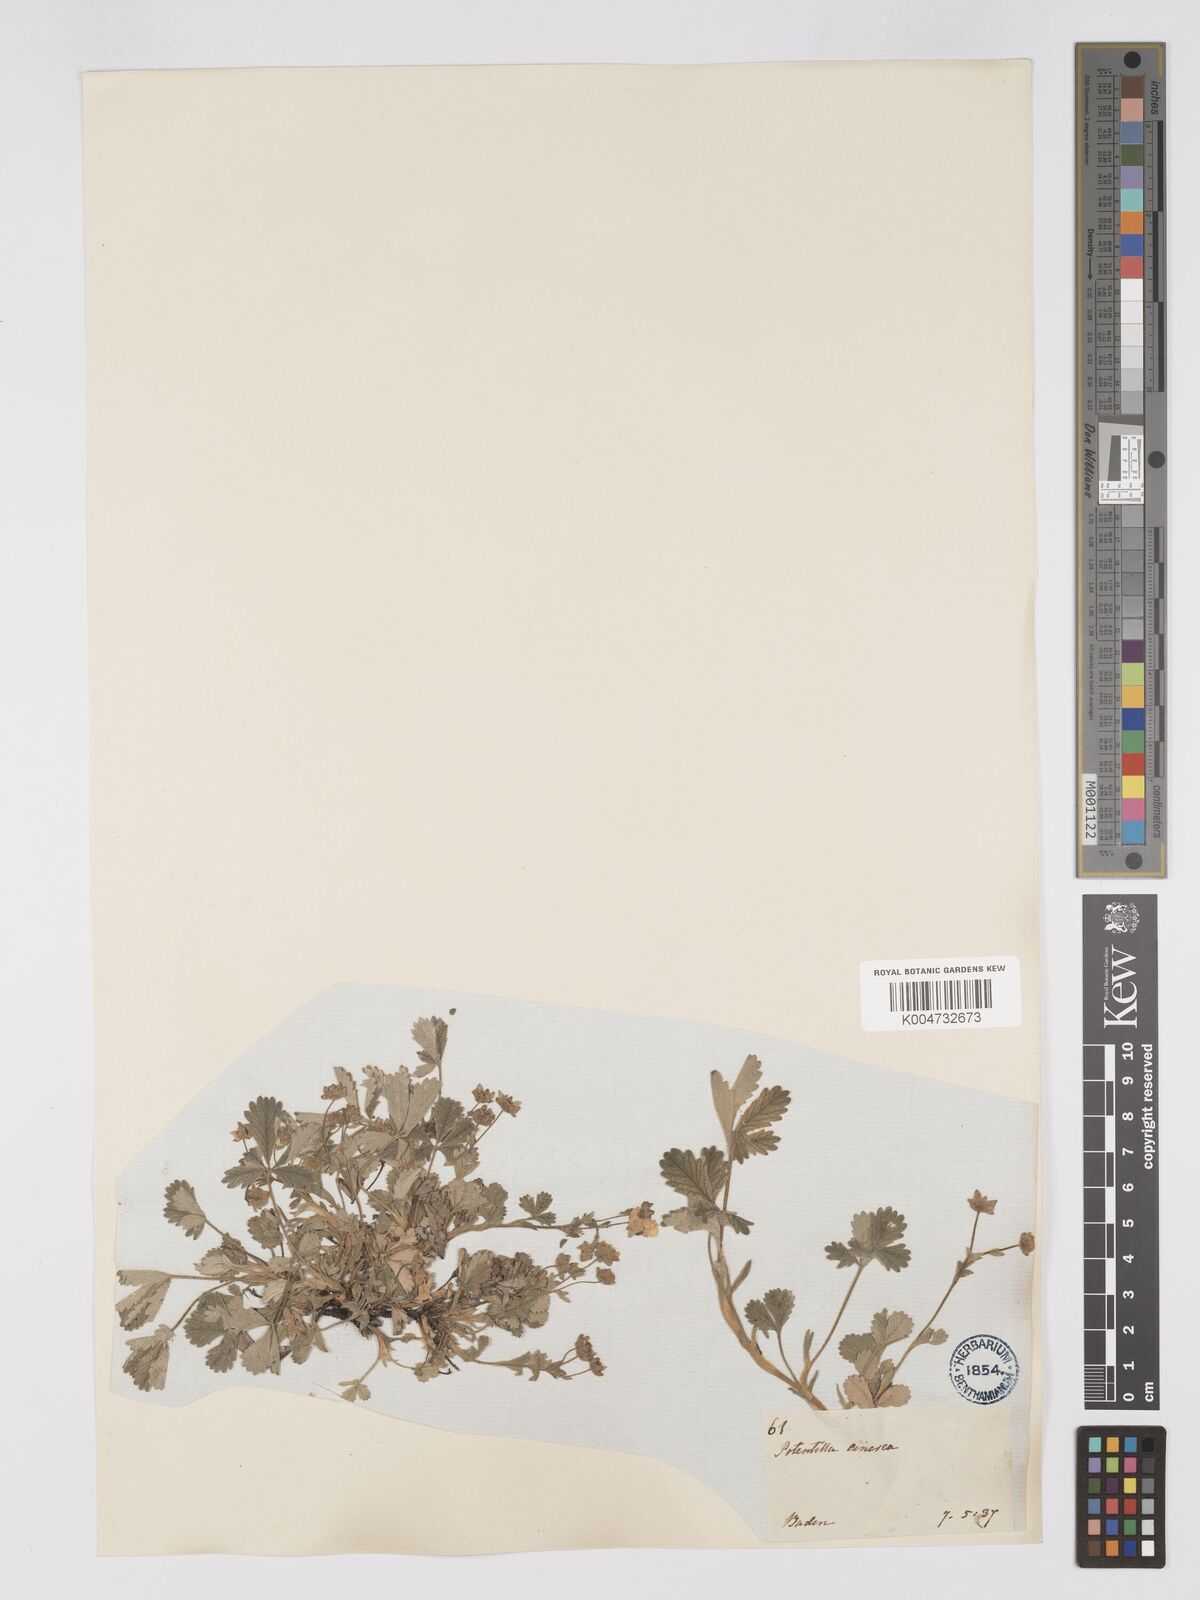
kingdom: Plantae
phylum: Tracheophyta
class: Magnoliopsida
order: Rosales
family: Rosaceae
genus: Potentilla
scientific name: Potentilla cinerea
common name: Ashy cinquefoil
